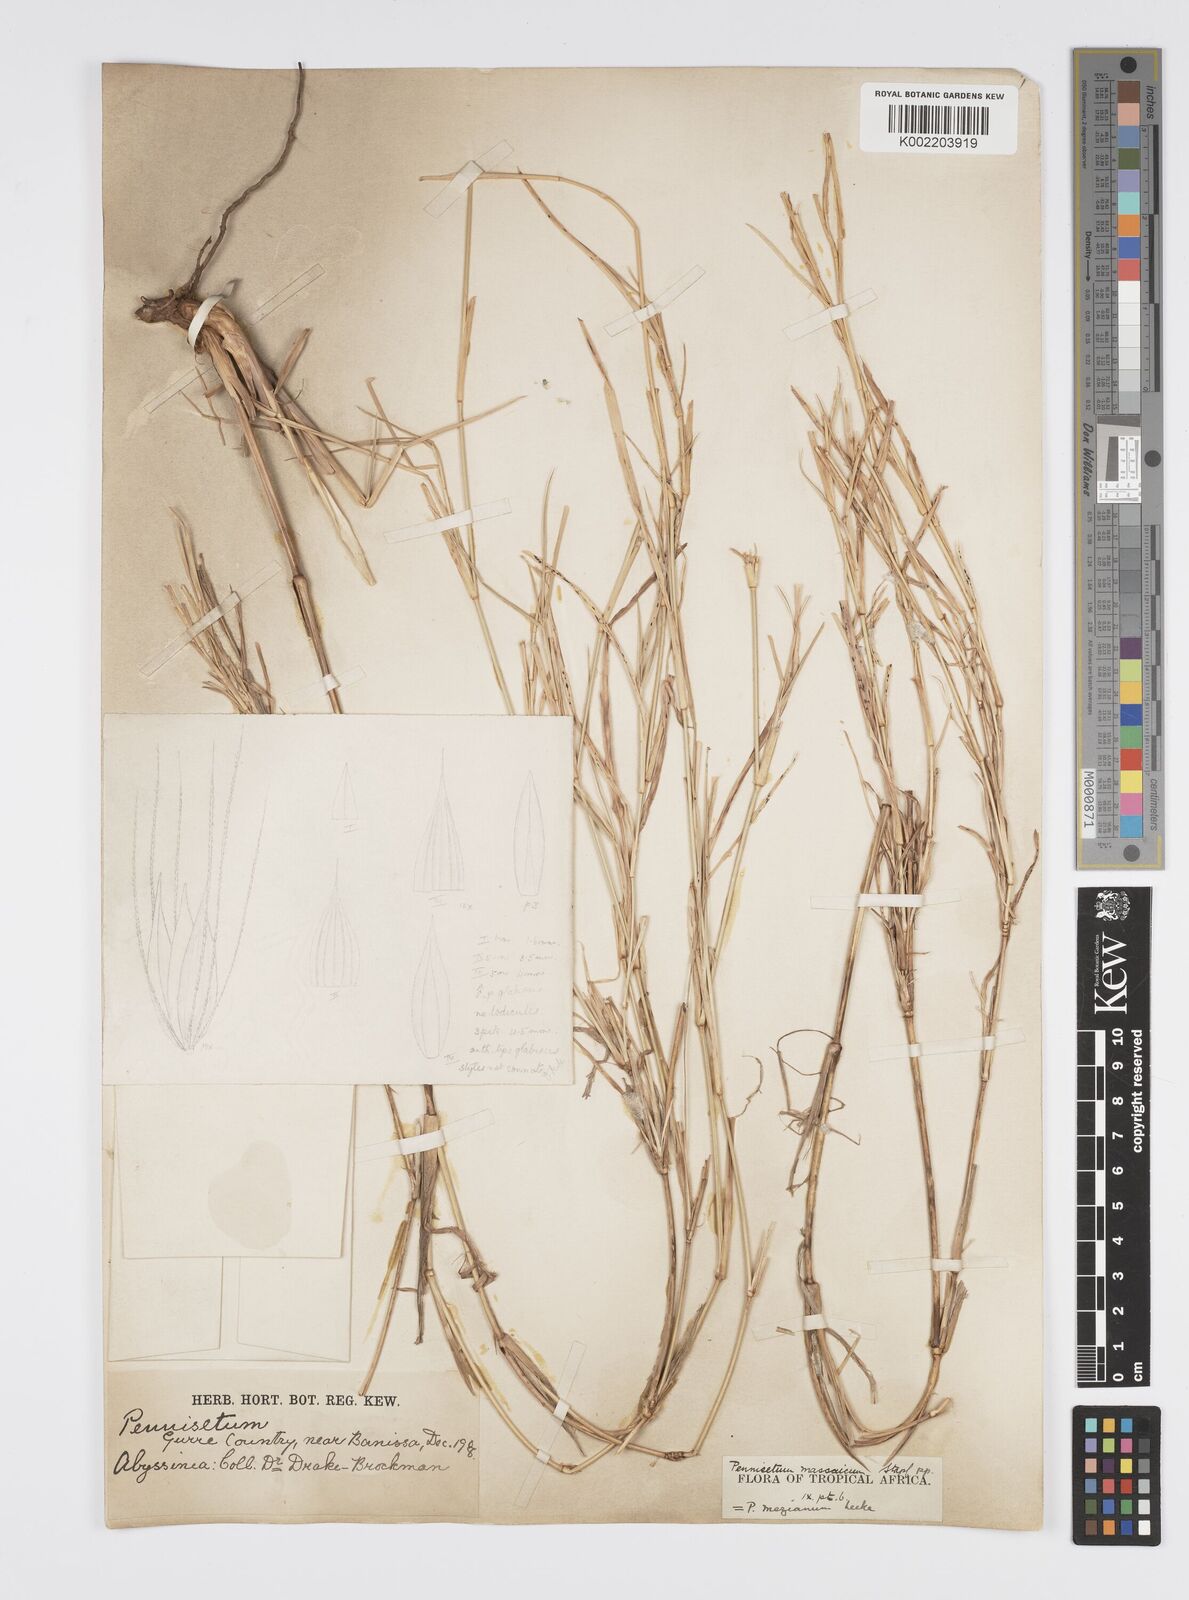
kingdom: Plantae
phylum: Tracheophyta
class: Liliopsida
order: Poales
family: Poaceae
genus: Cenchrus
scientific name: Cenchrus mezianus
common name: Bamboo grass
